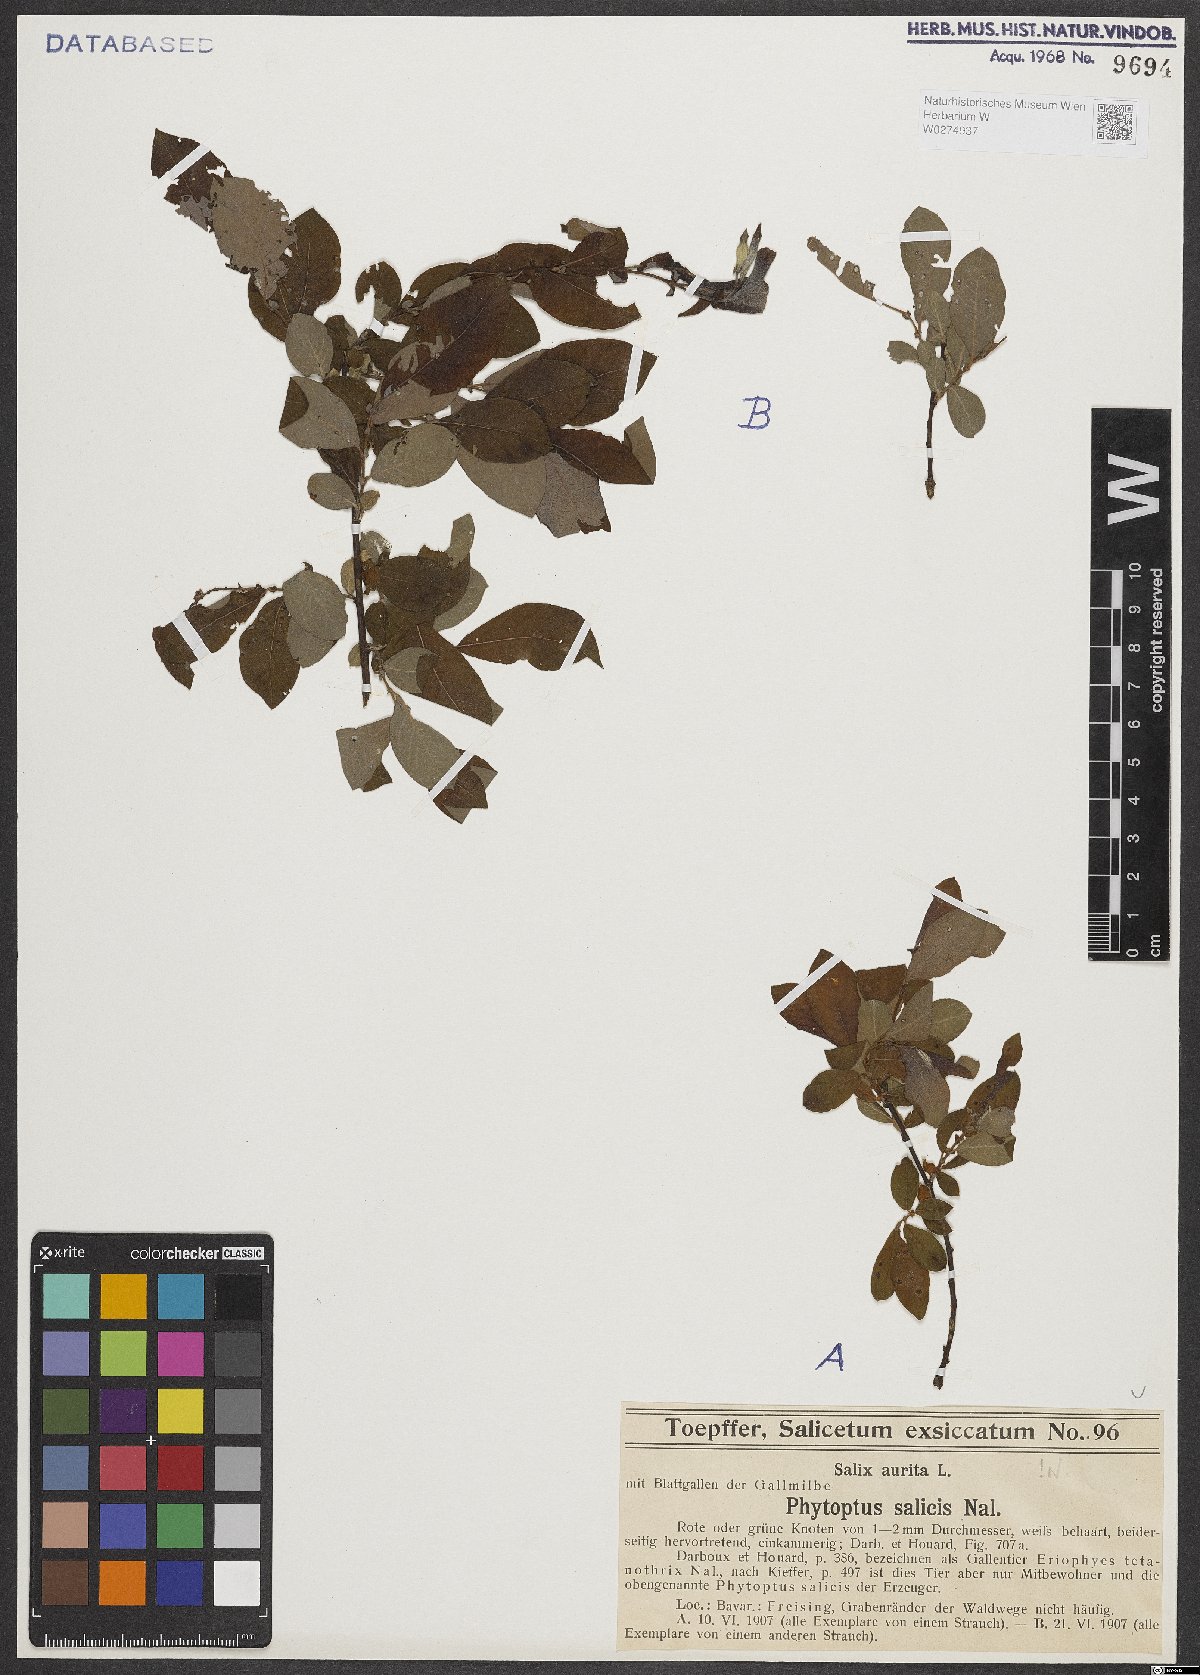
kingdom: Plantae
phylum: Tracheophyta
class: Magnoliopsida
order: Malpighiales
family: Salicaceae
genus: Salix
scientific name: Salix aurita
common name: Eared willow
